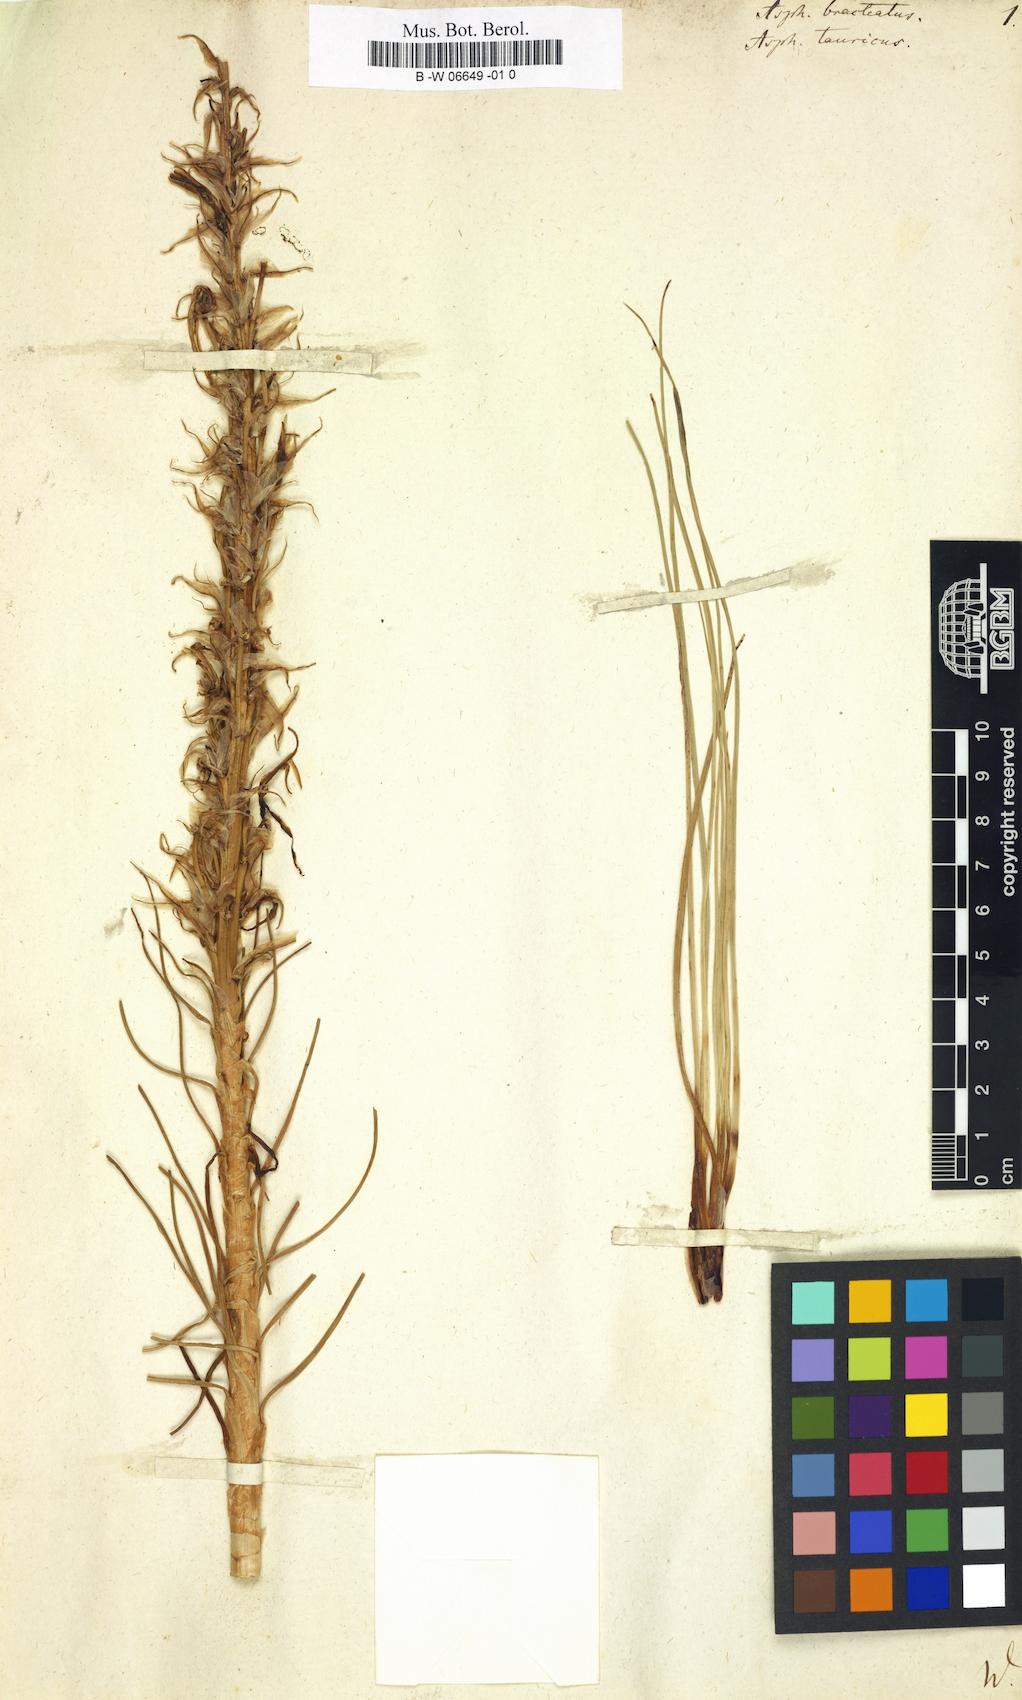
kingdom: Plantae
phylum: Tracheophyta
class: Liliopsida
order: Asparagales
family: Asphodelaceae
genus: Asphodeline
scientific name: Asphodeline taurica
